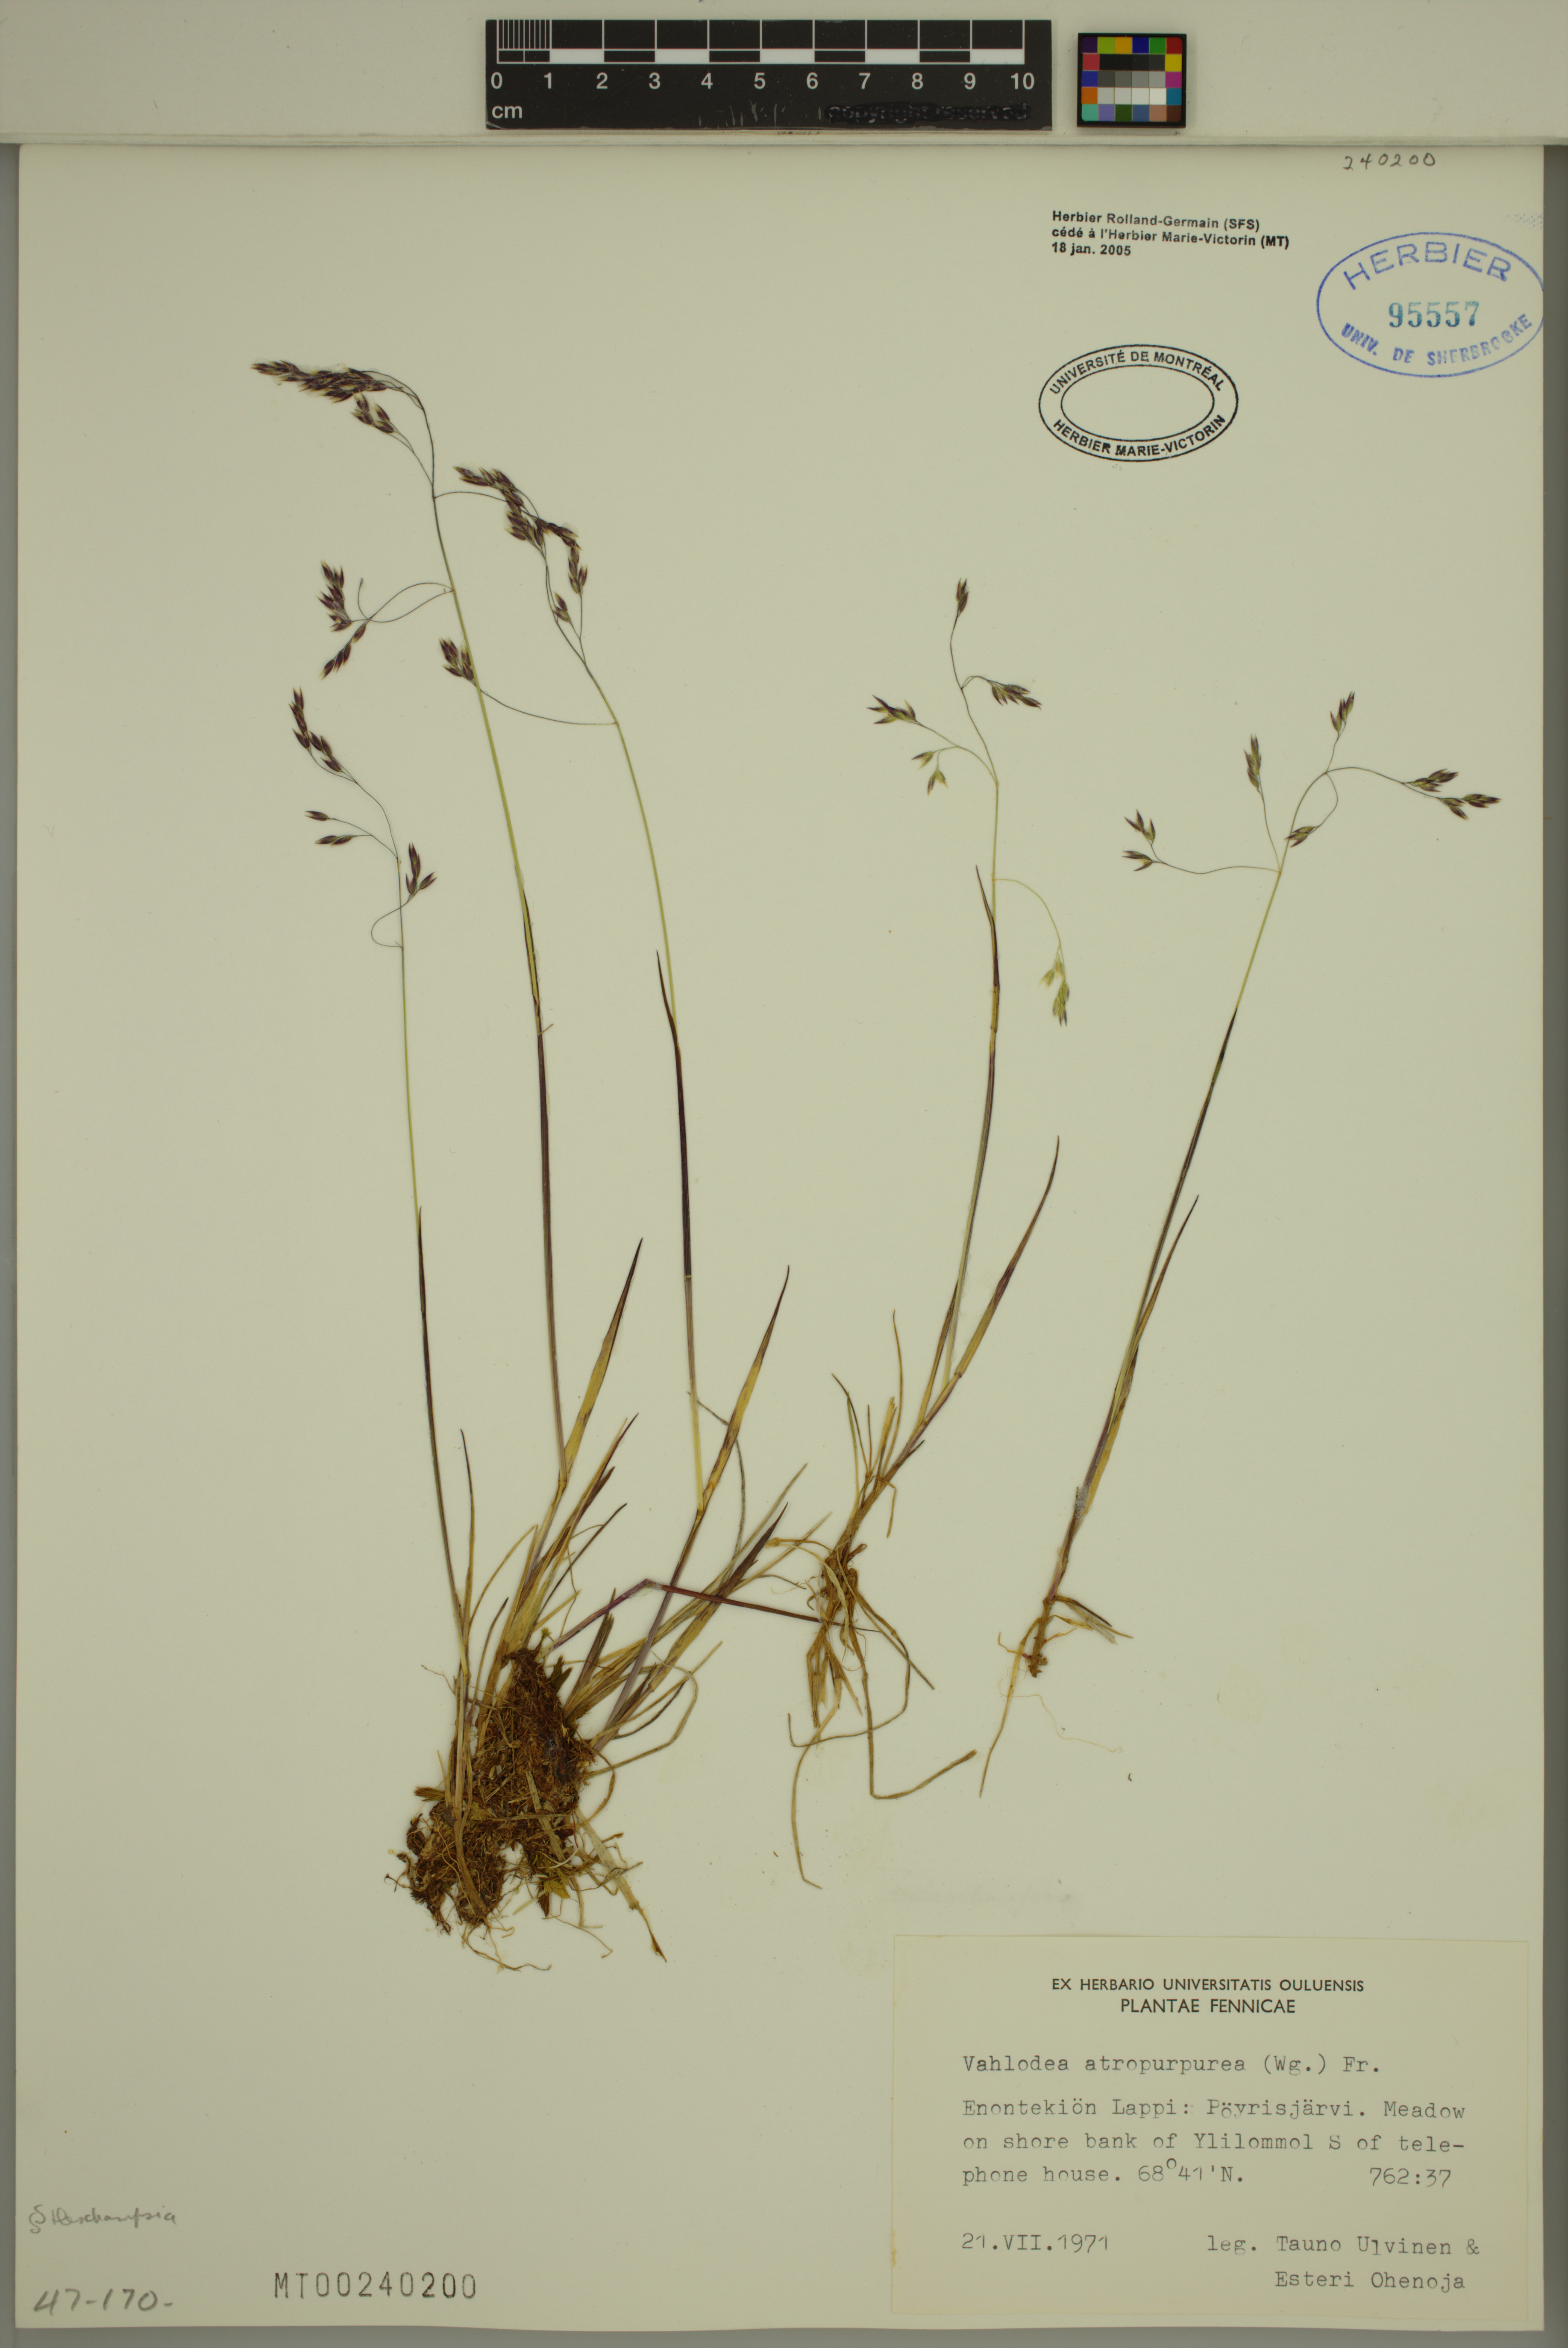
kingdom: Plantae
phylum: Tracheophyta
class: Liliopsida
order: Poales
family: Poaceae
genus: Vahlodea
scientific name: Vahlodea atropurpurea
